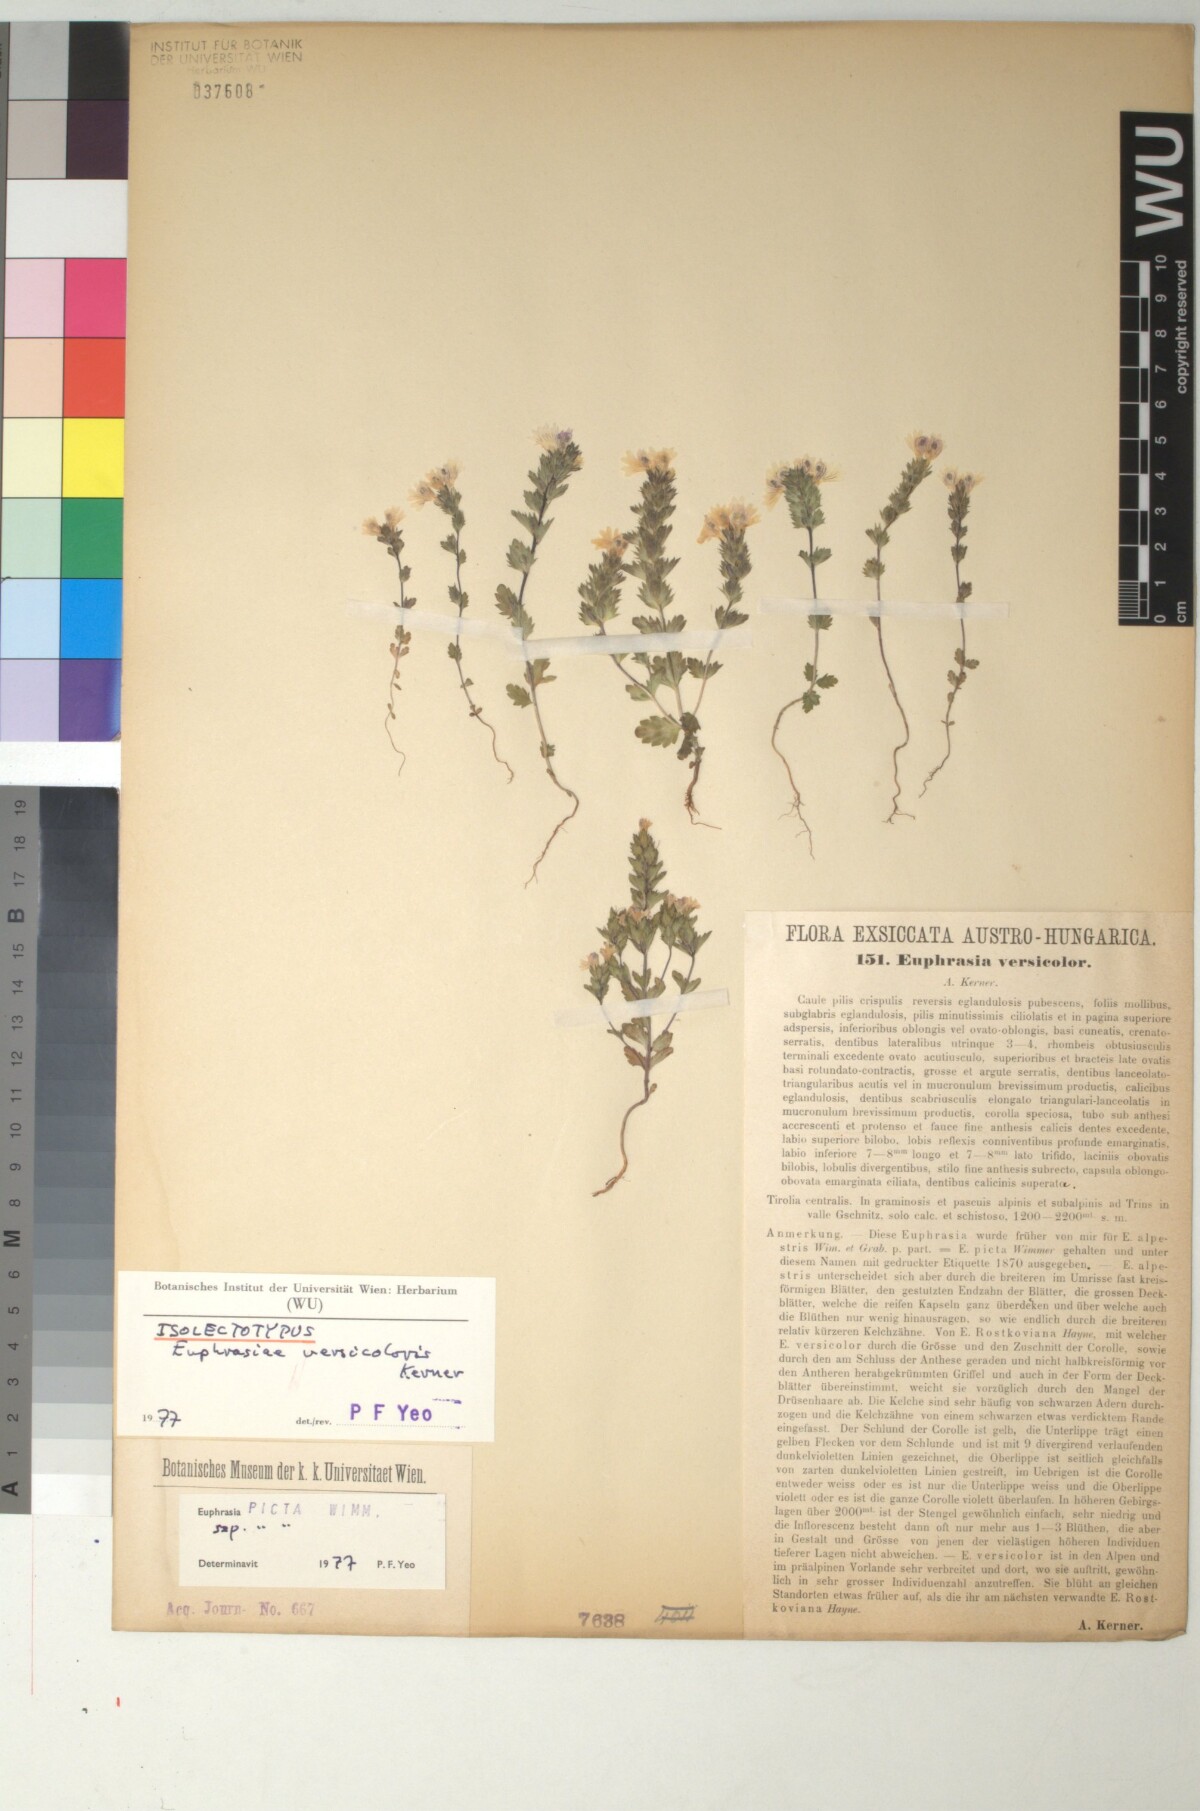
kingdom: Plantae
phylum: Tracheophyta
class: Magnoliopsida
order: Lamiales
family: Orobanchaceae
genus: Euphrasia
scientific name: Euphrasia picta
